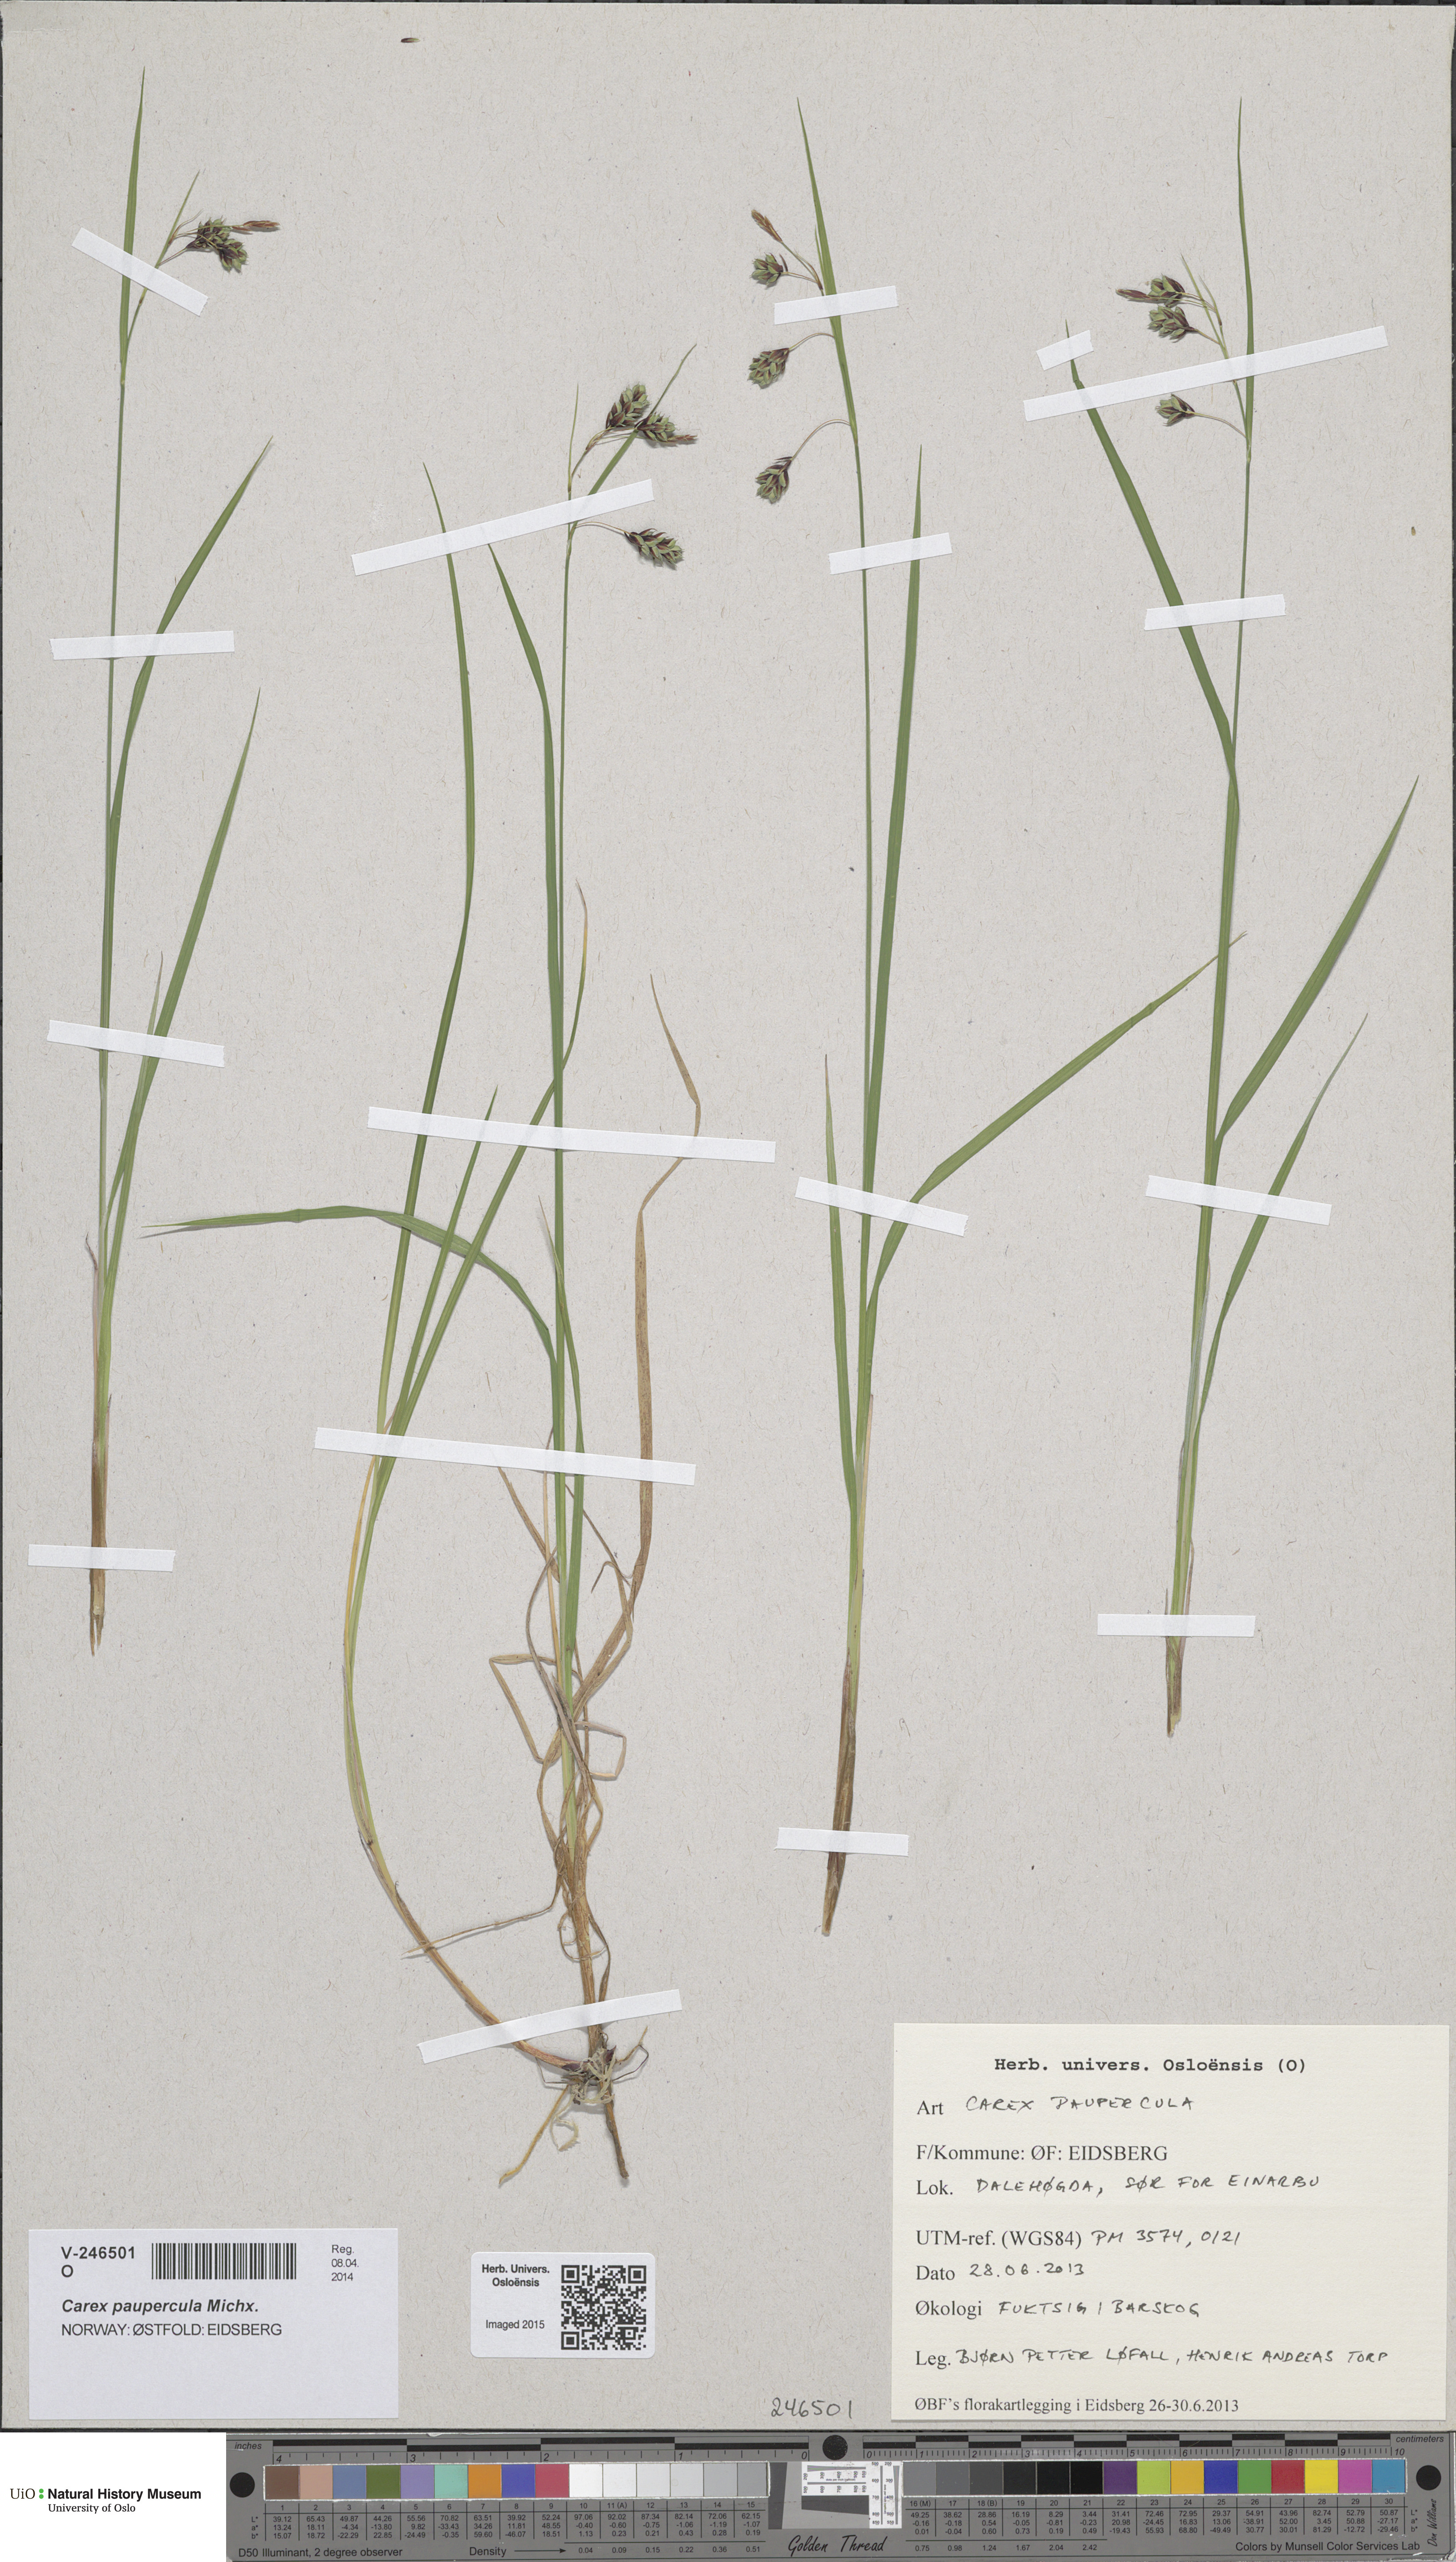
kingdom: Plantae
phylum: Tracheophyta
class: Liliopsida
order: Poales
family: Cyperaceae
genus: Carex
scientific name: Carex magellanica
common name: Bog sedge
